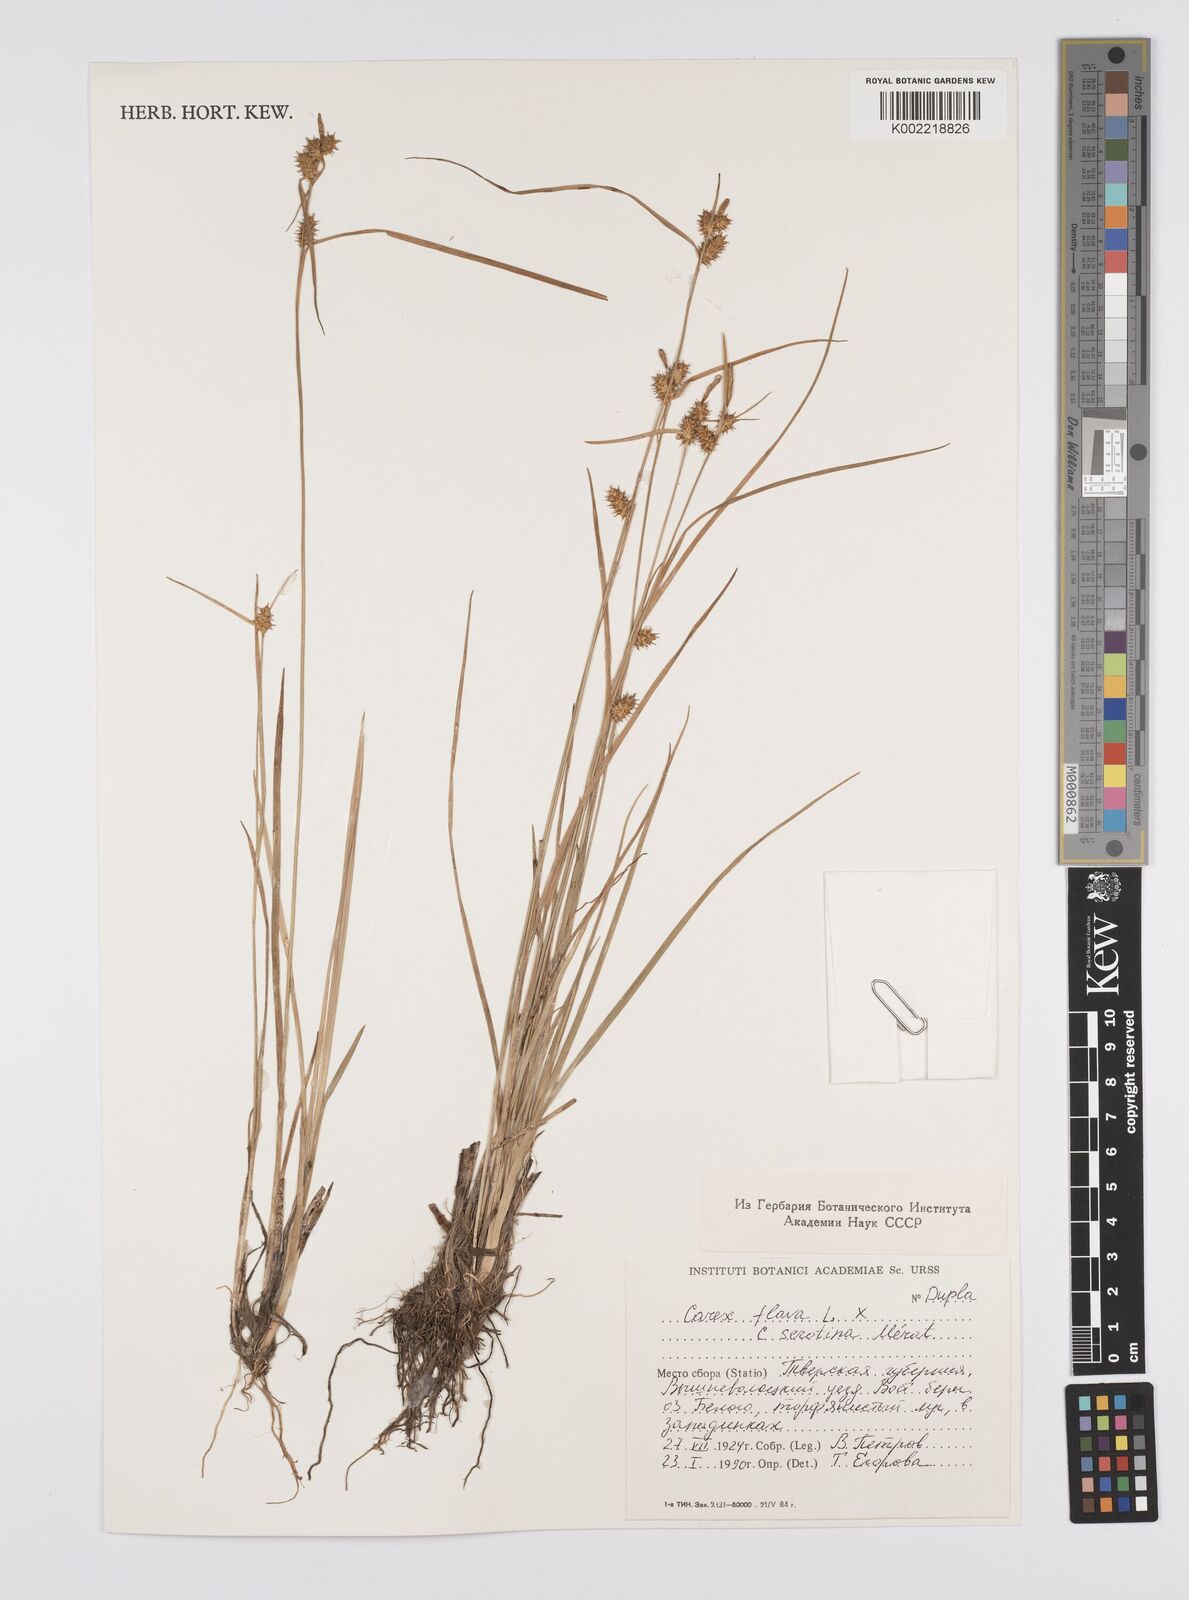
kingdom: Plantae
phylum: Tracheophyta
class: Liliopsida
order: Poales
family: Cyperaceae
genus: Carex
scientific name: Carex flava
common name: Large yellow-sedge
